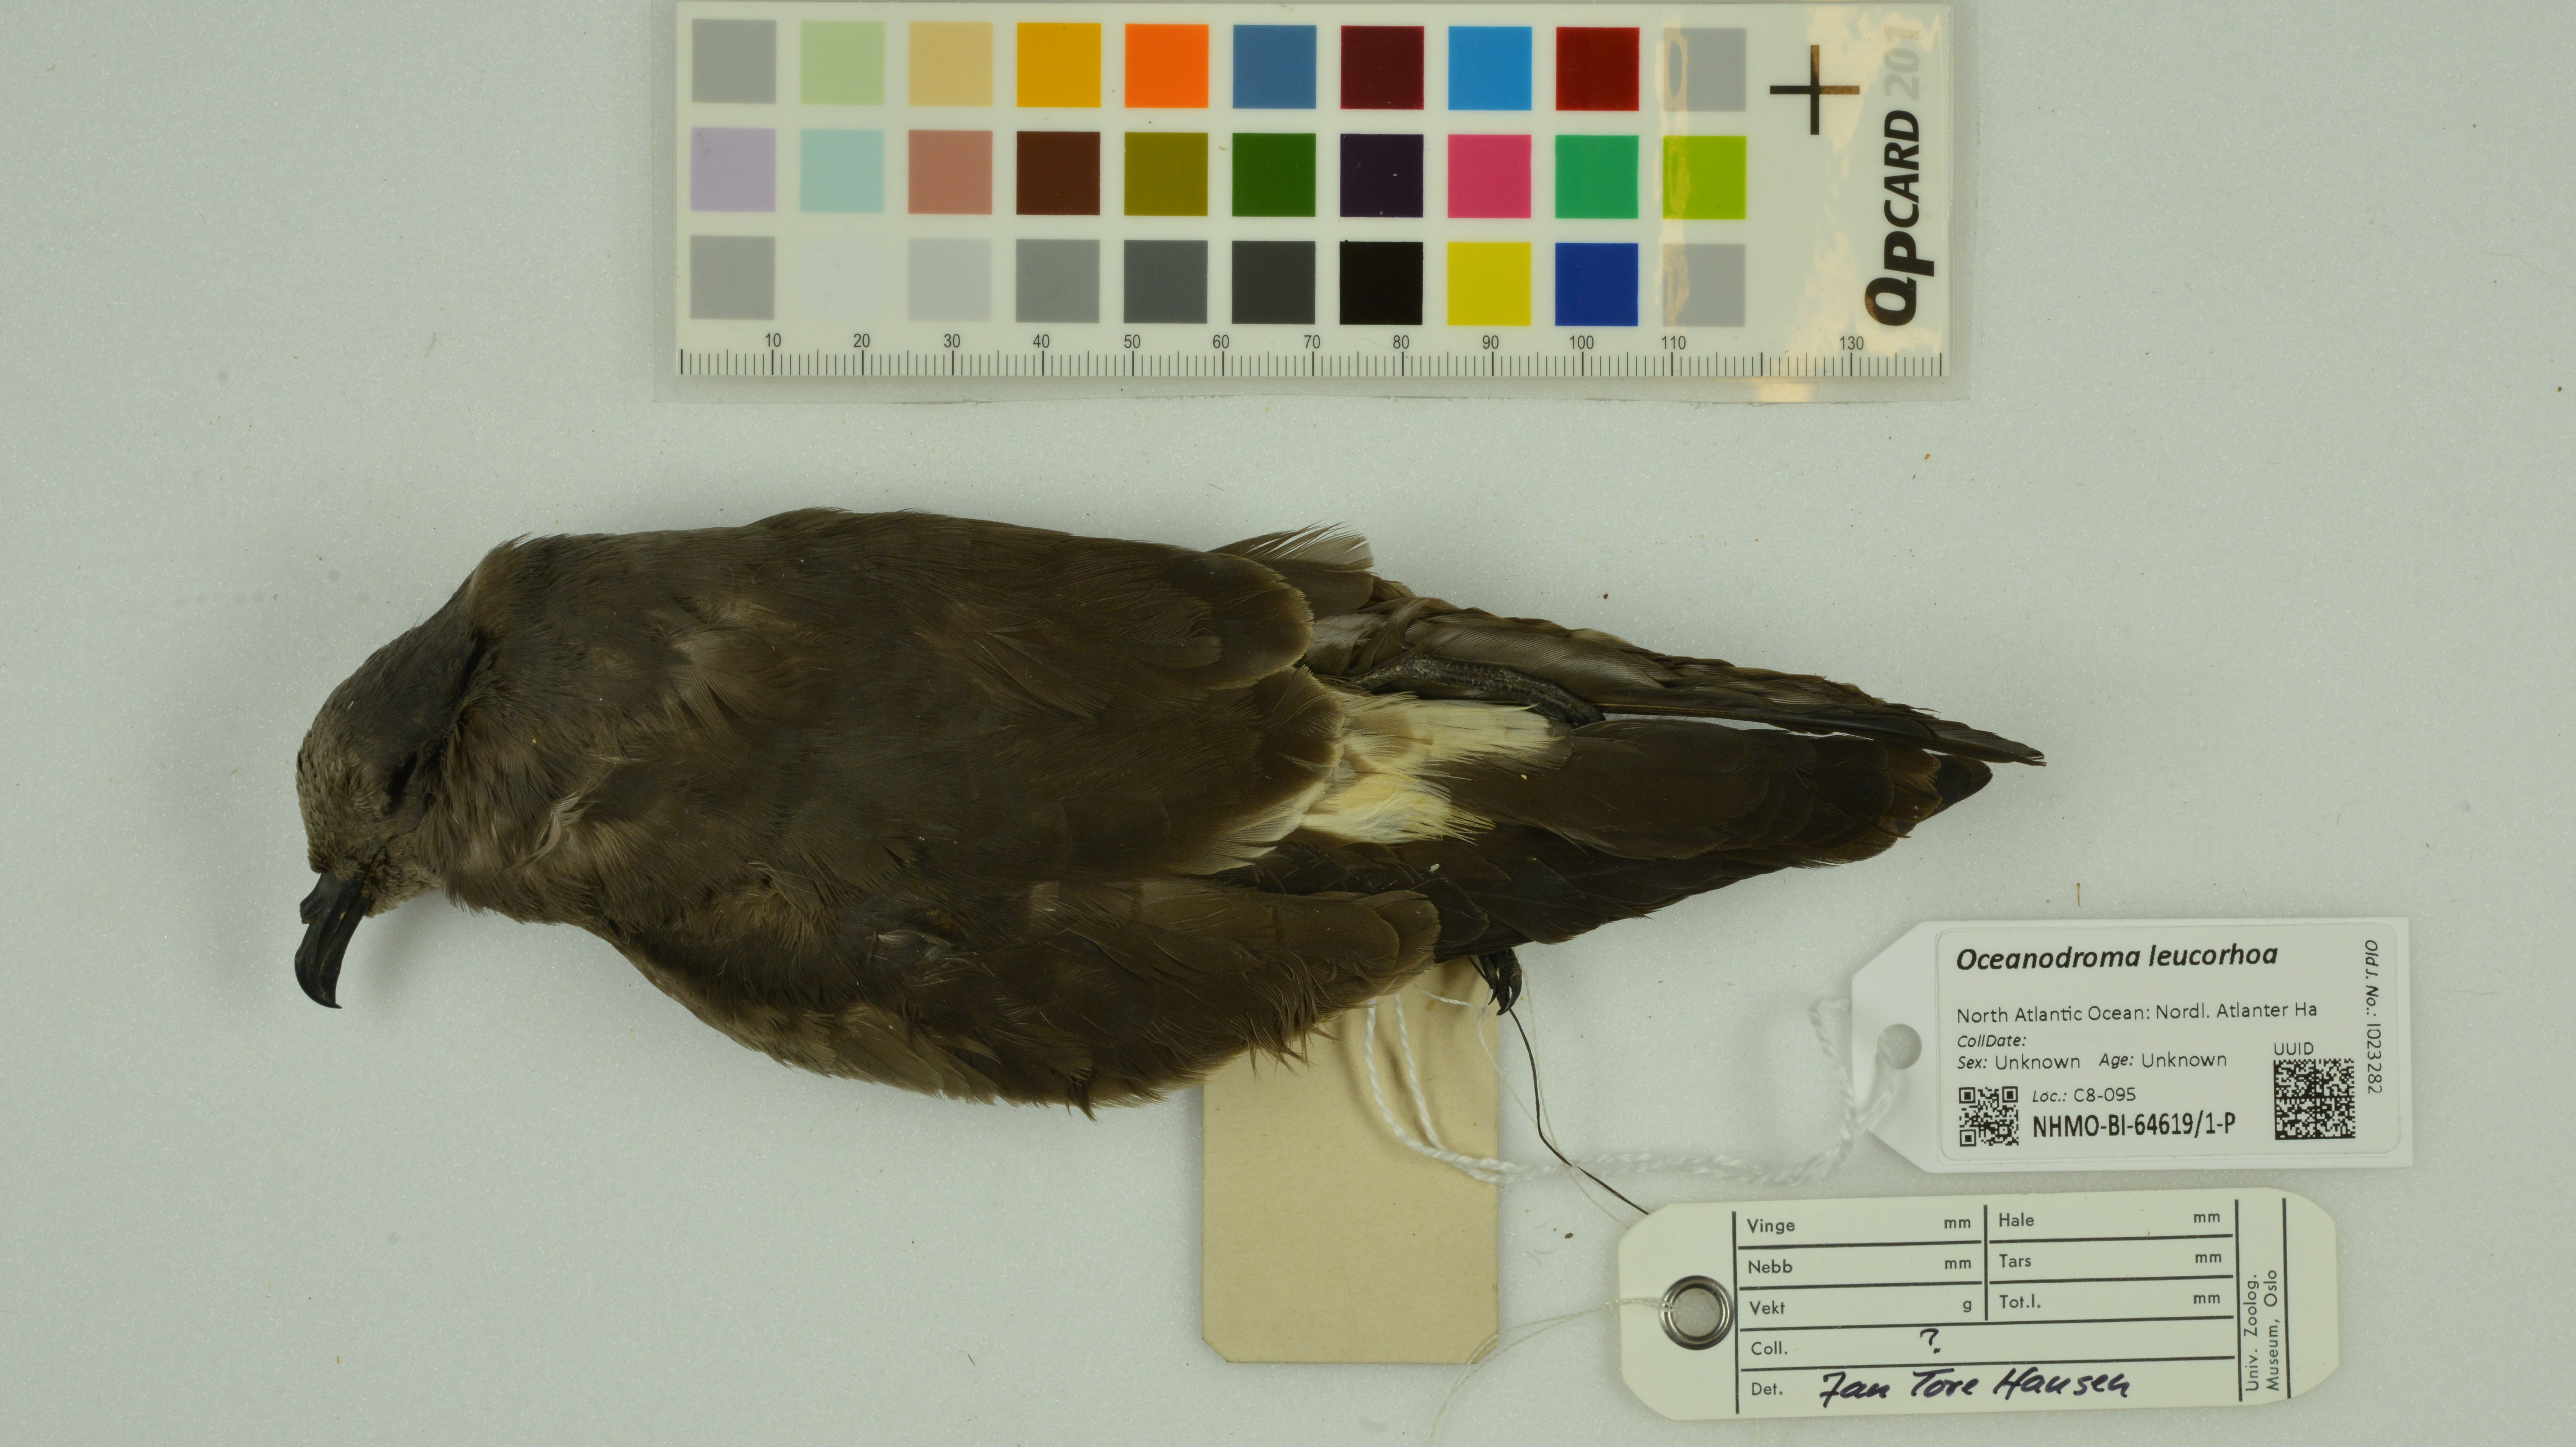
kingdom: Animalia
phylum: Chordata
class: Aves
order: Procellariiformes
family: Hydrobatidae
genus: Oceanodroma
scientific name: Oceanodroma leucorhoa
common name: Leach's storm-petrel
